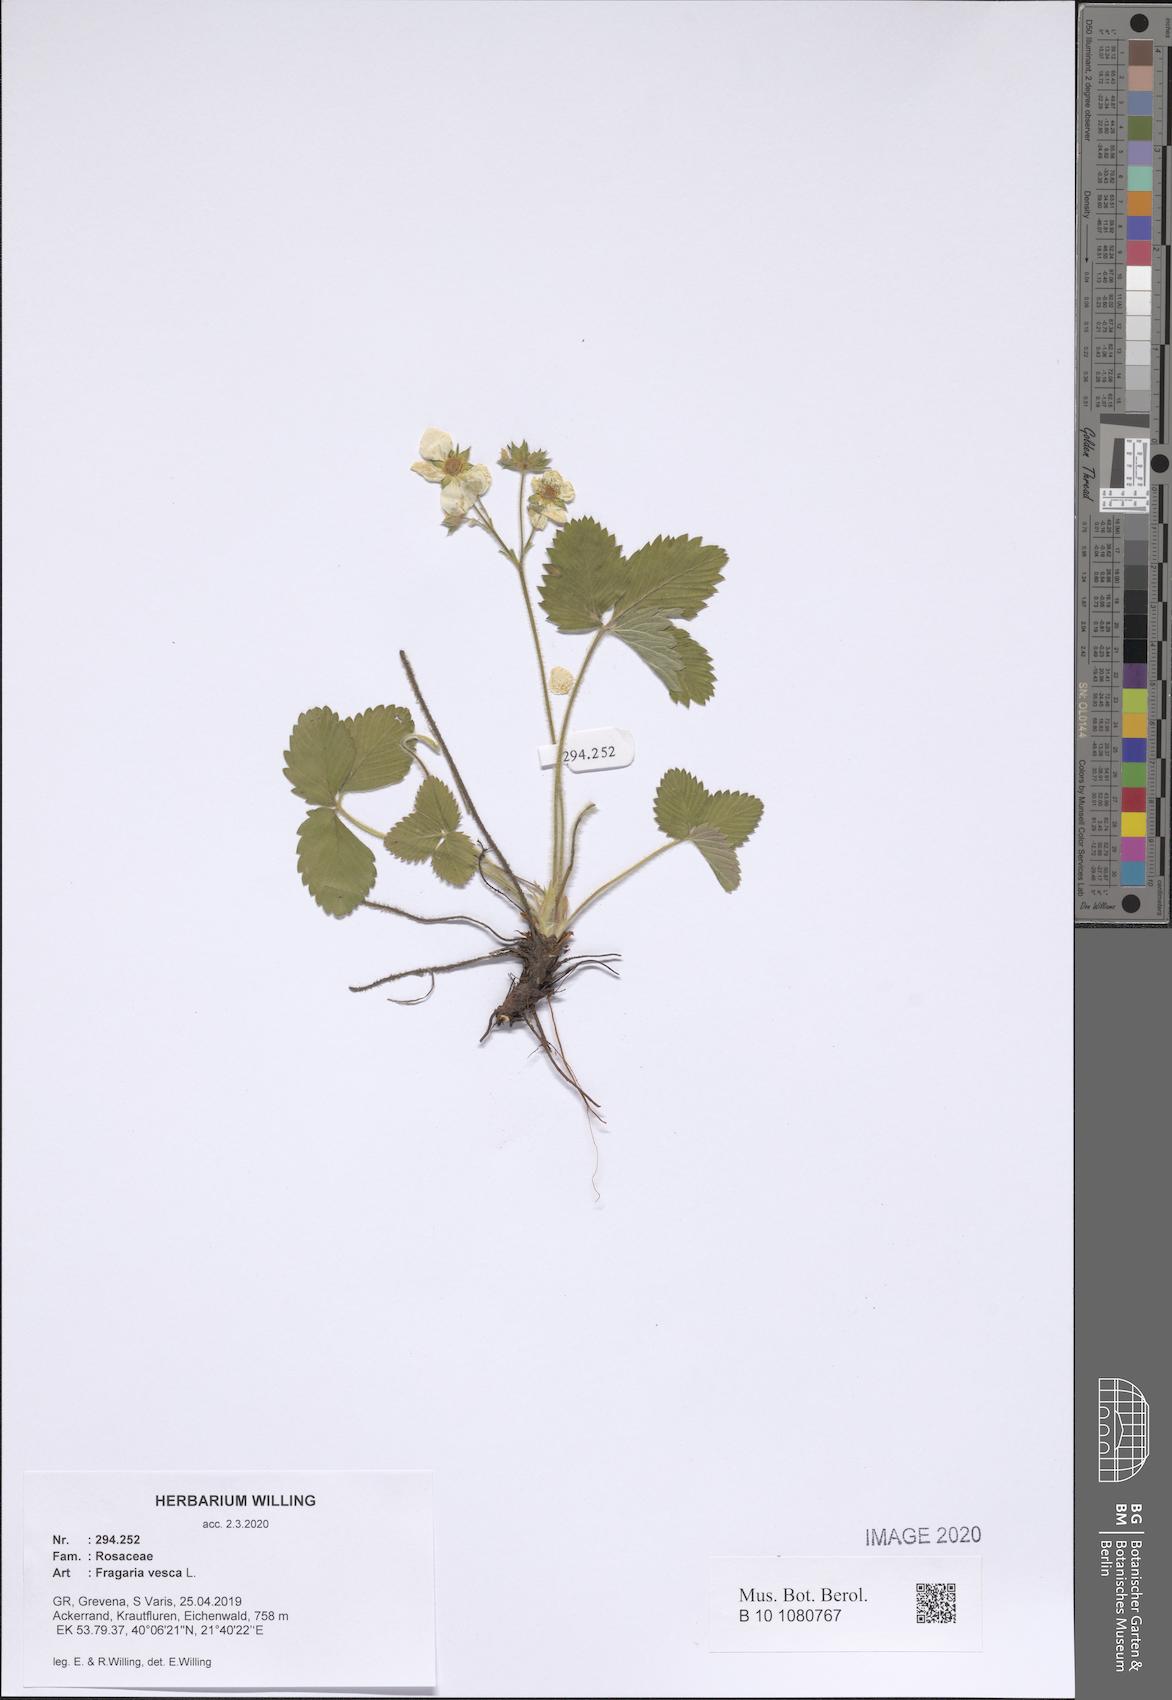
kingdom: Plantae
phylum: Tracheophyta
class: Magnoliopsida
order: Rosales
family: Rosaceae
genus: Fragaria
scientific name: Fragaria vesca
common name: Wild strawberry
